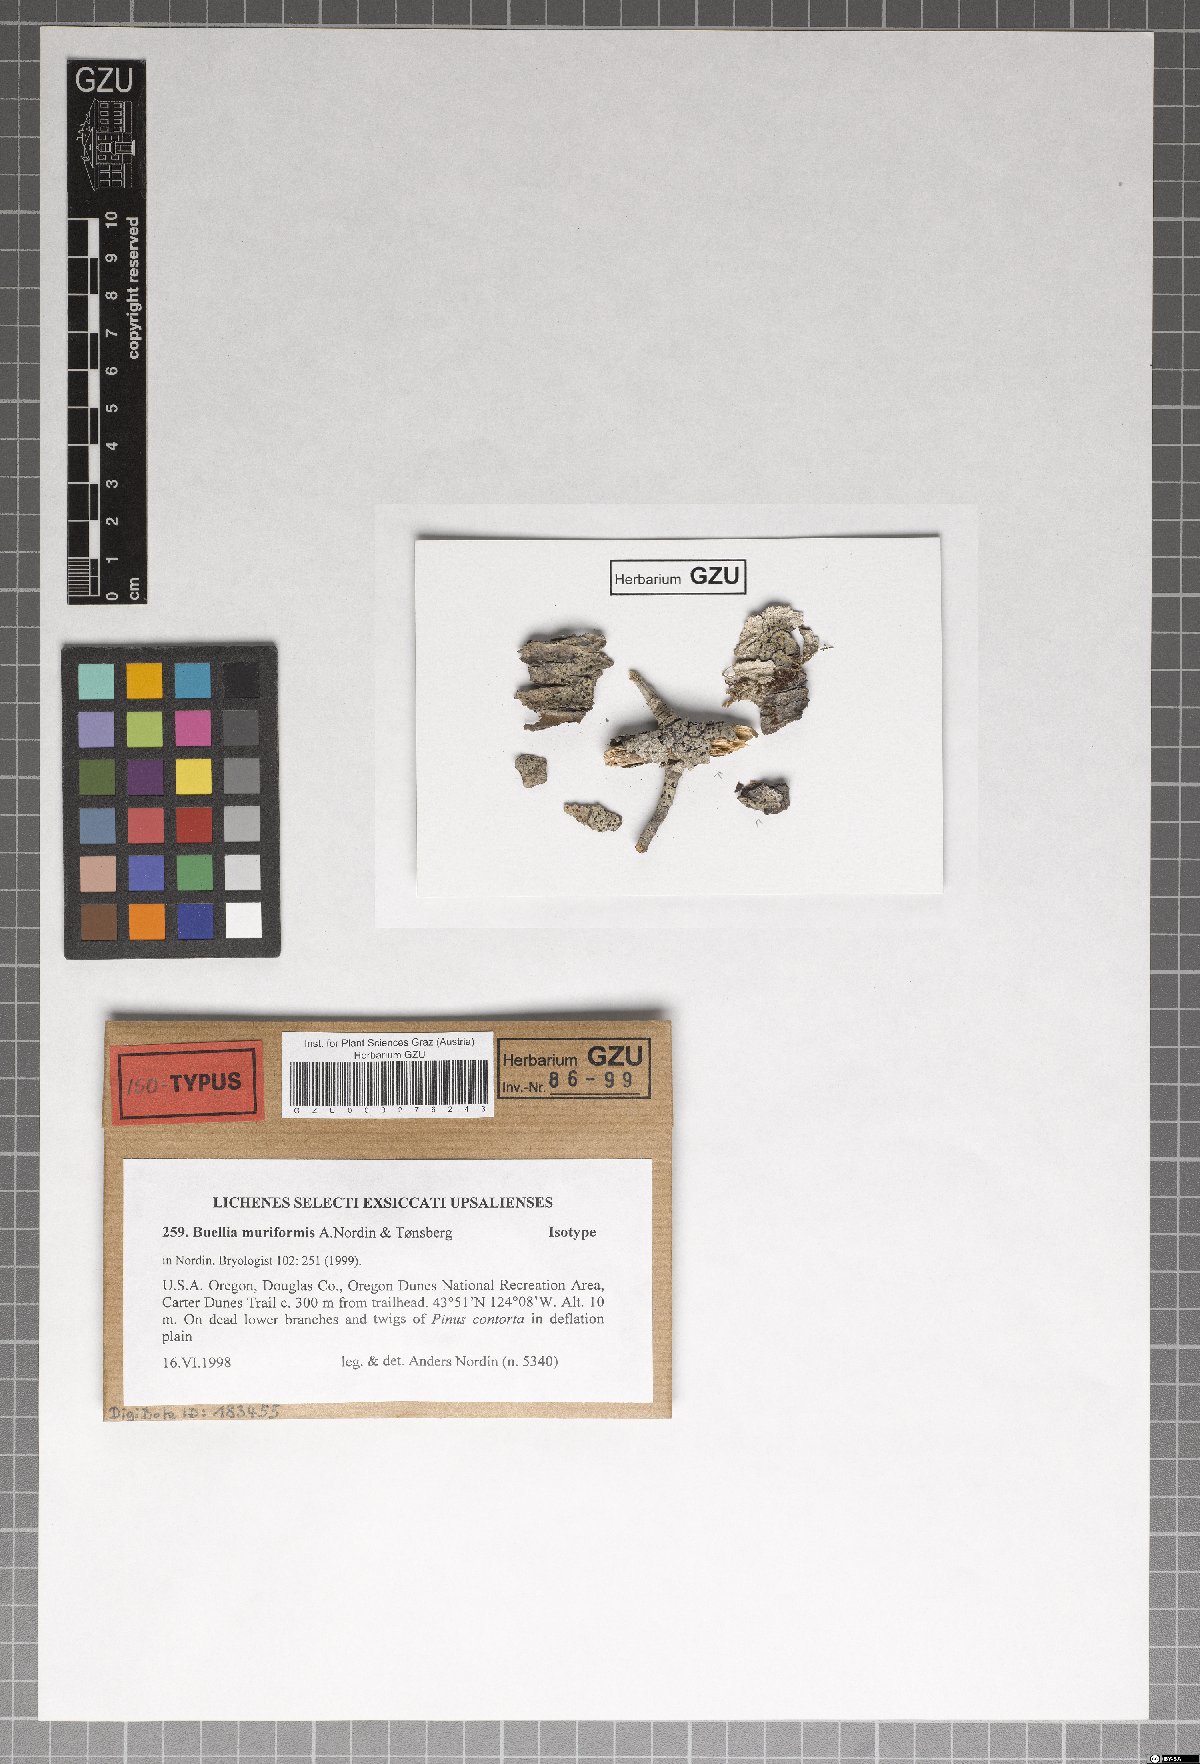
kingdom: Fungi
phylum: Ascomycota
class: Lecanoromycetes
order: Caliciales
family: Caliciaceae
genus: Buellia
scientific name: Buellia muriformis
